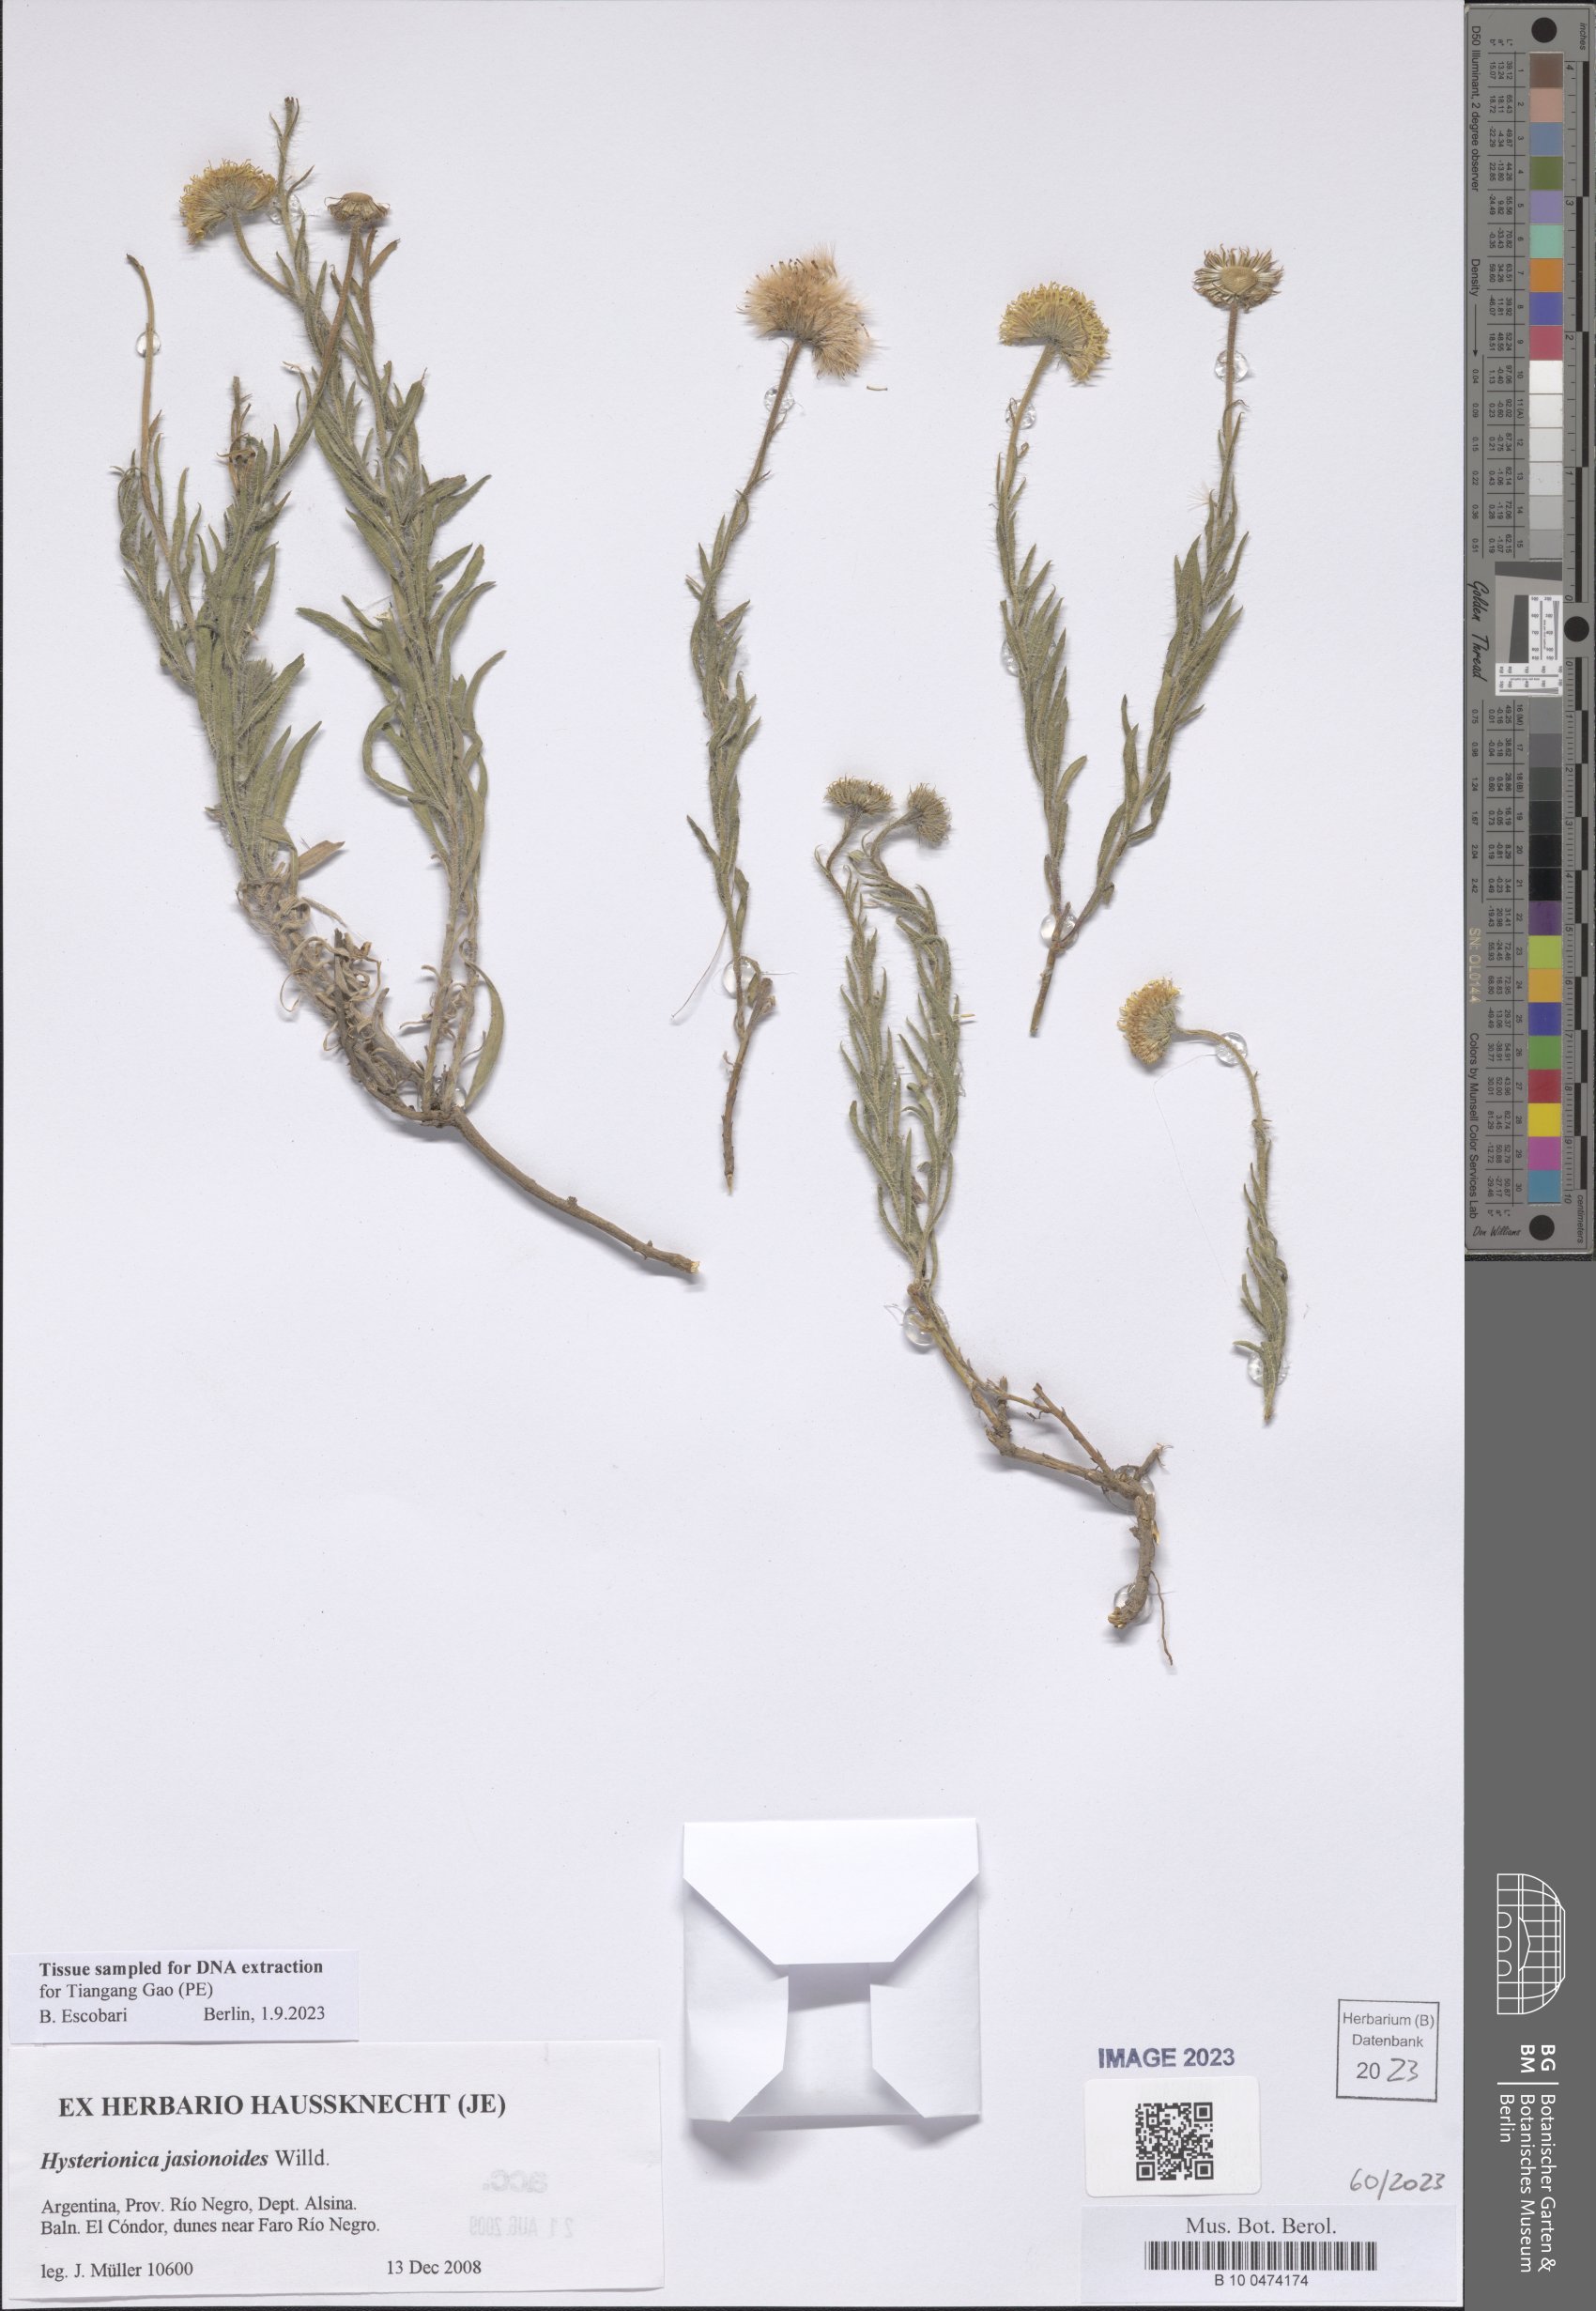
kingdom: Plantae
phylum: Tracheophyta
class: Magnoliopsida
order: Asterales
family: Asteraceae
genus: Hysterionica
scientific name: Hysterionica jasionoides
